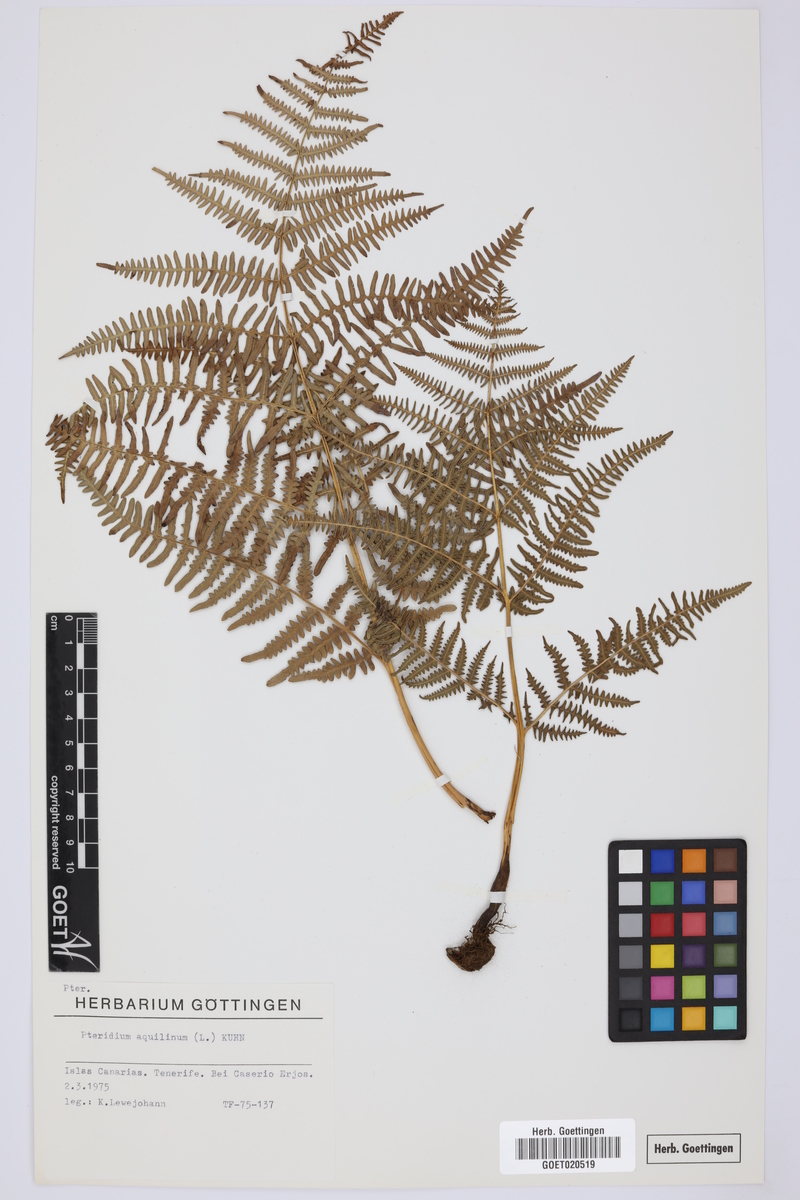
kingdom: Plantae
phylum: Tracheophyta
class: Polypodiopsida
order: Polypodiales
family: Dennstaedtiaceae
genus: Pteridium
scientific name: Pteridium aquilinum
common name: Bracken
